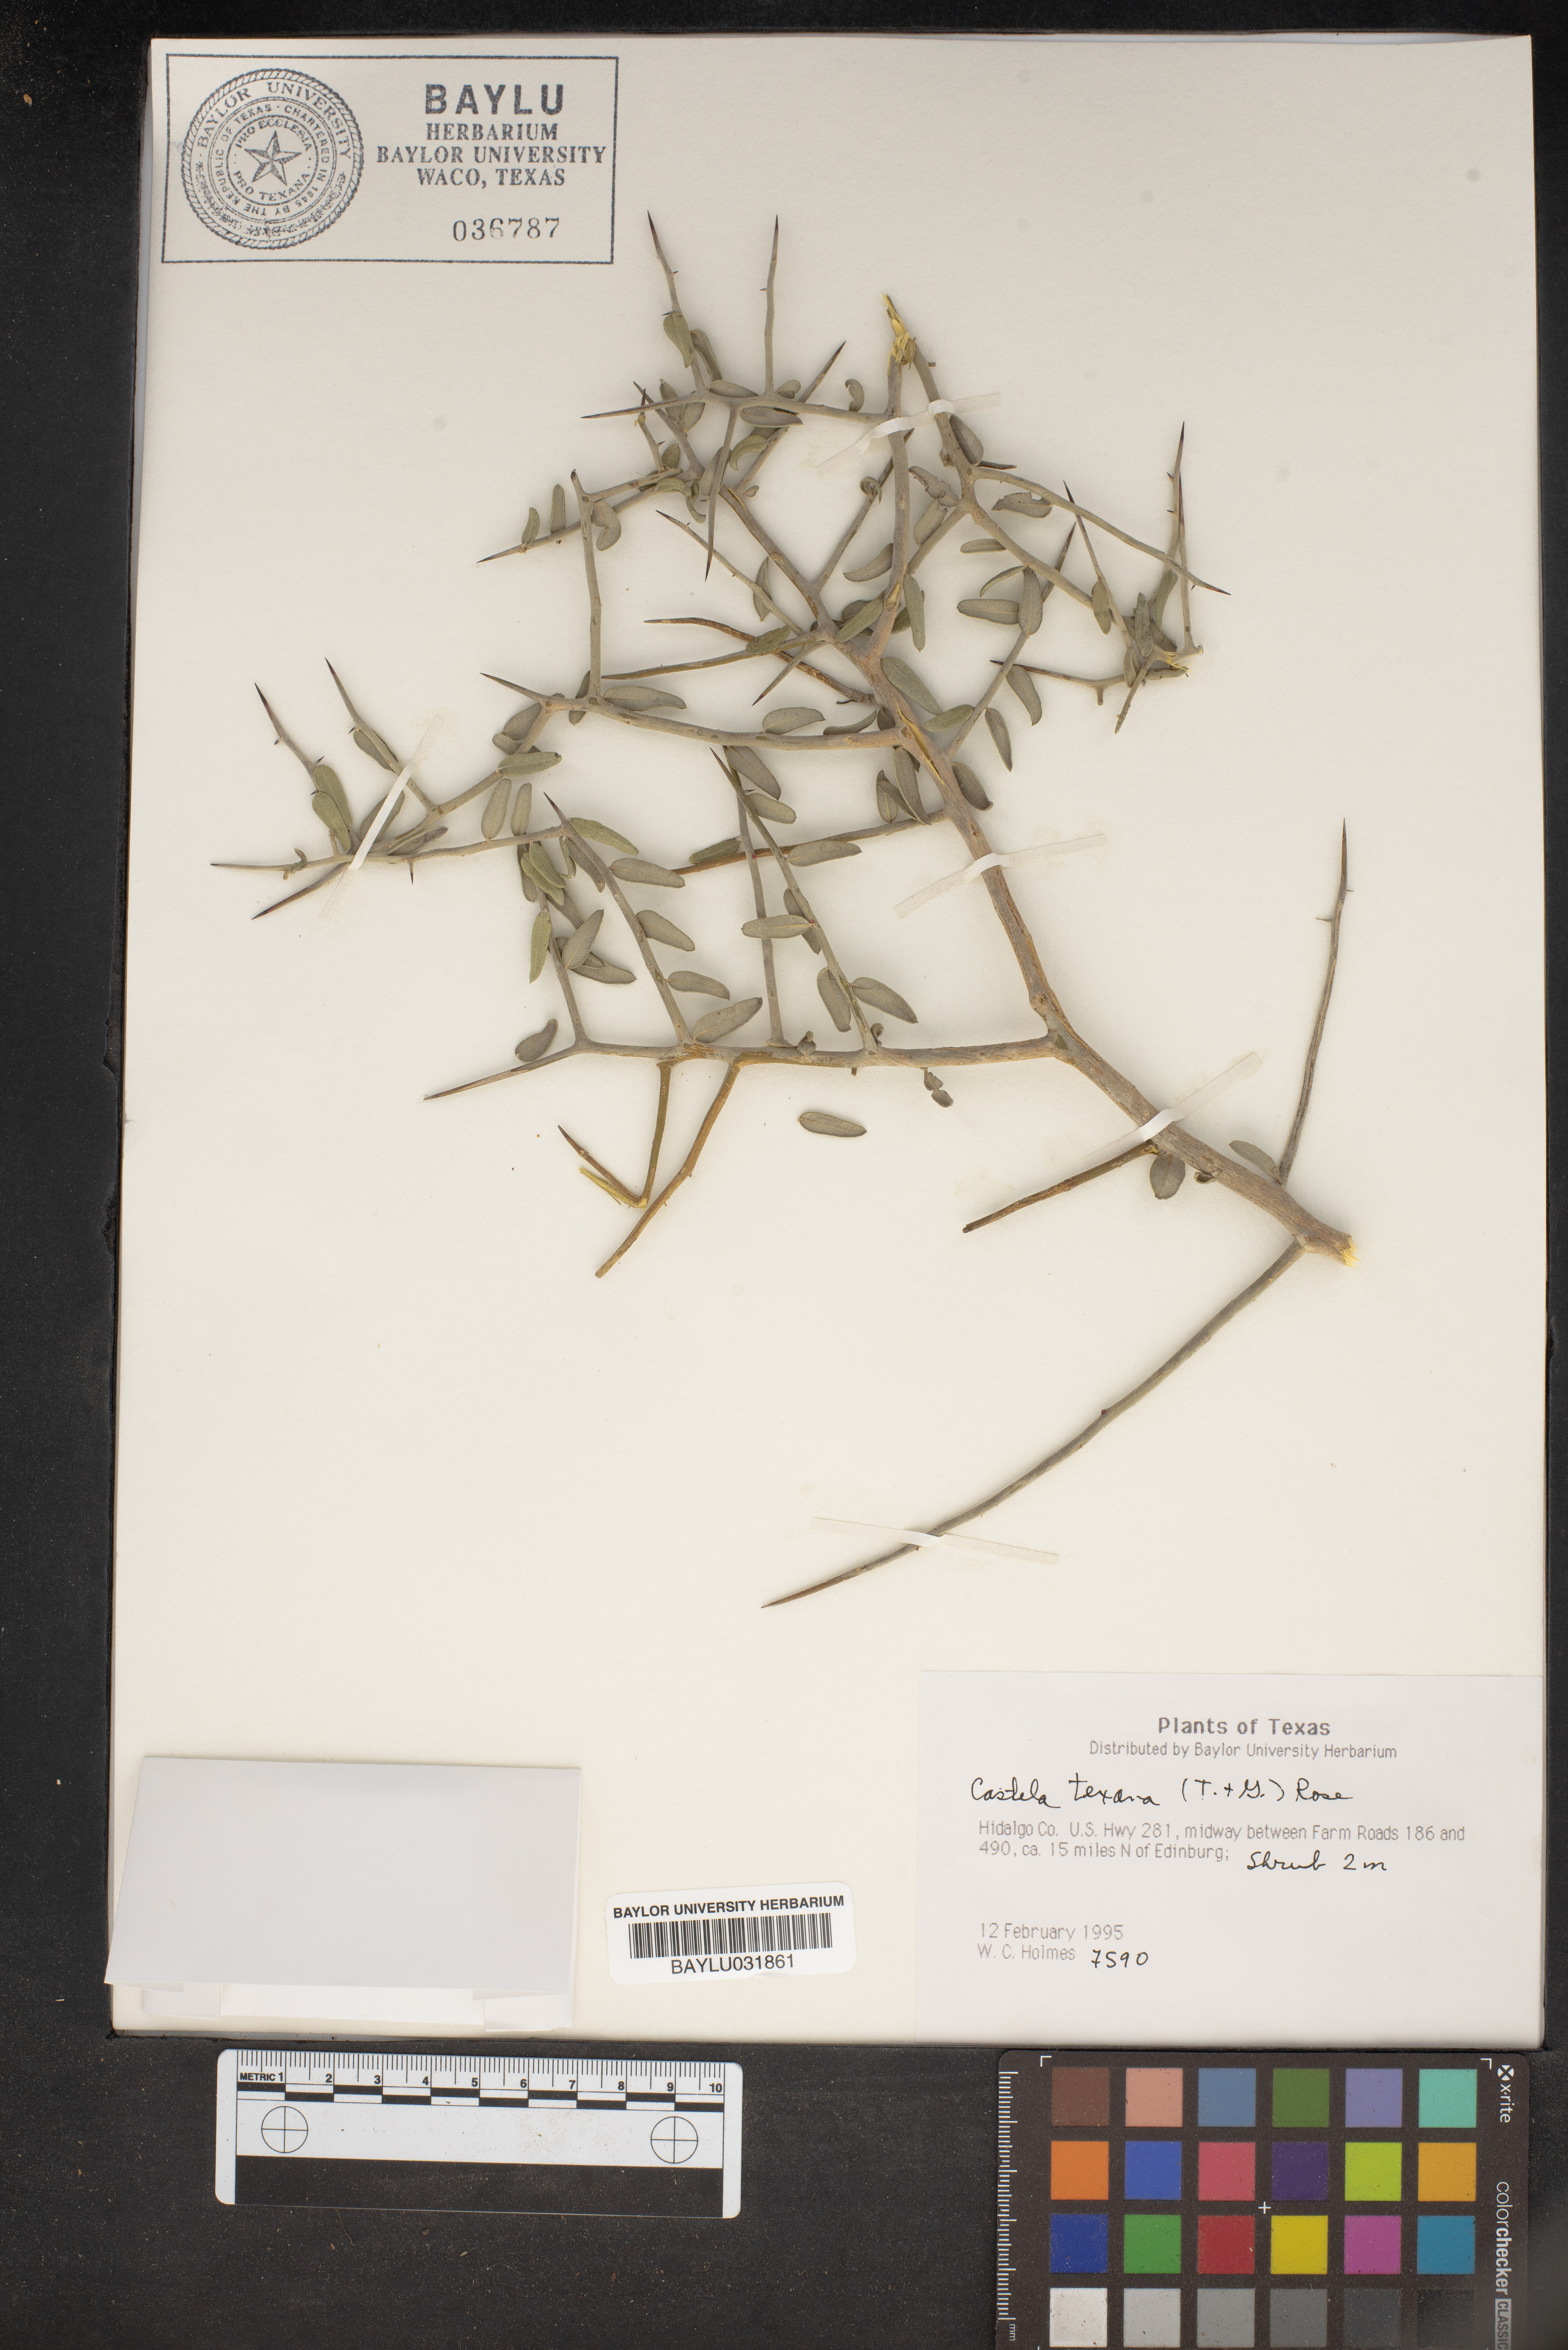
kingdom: Plantae
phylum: Tracheophyta
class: Magnoliopsida
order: Sapindales
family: Simaroubaceae
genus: Castela
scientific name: Castela tortuosa
